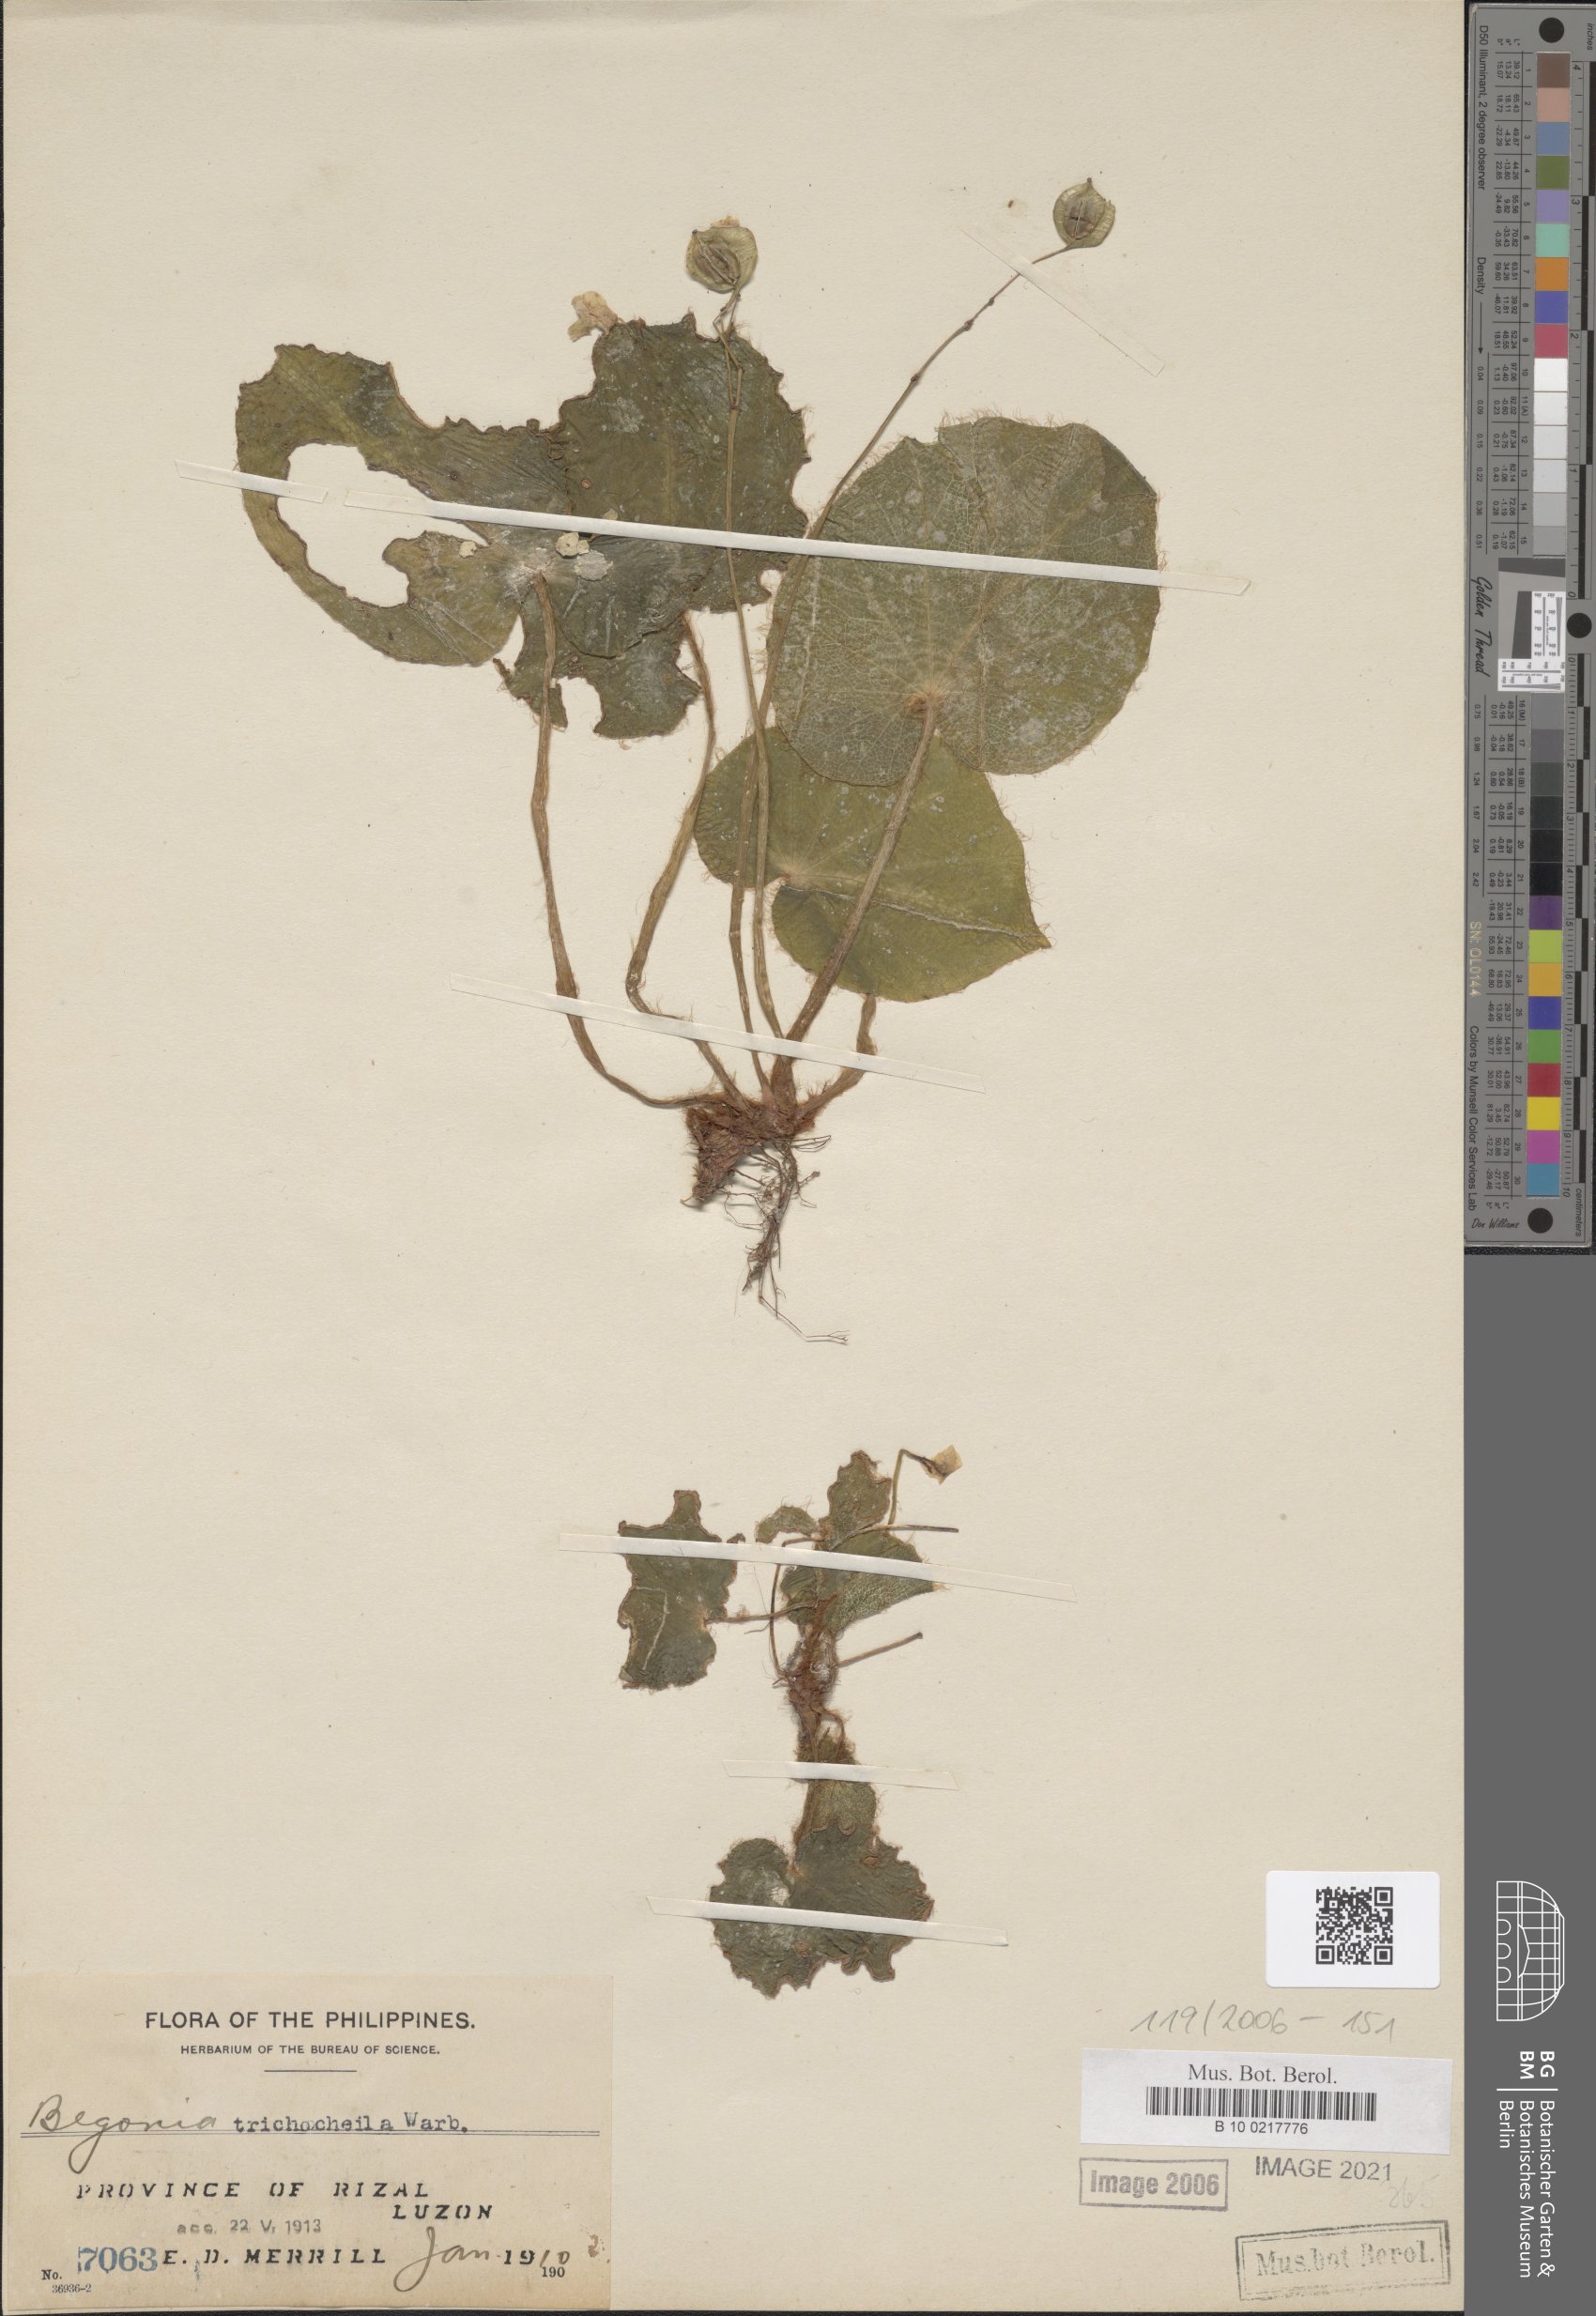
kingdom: Plantae
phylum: Tracheophyta
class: Magnoliopsida
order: Cucurbitales
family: Begoniaceae
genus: Begonia
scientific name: Begonia trichochila
